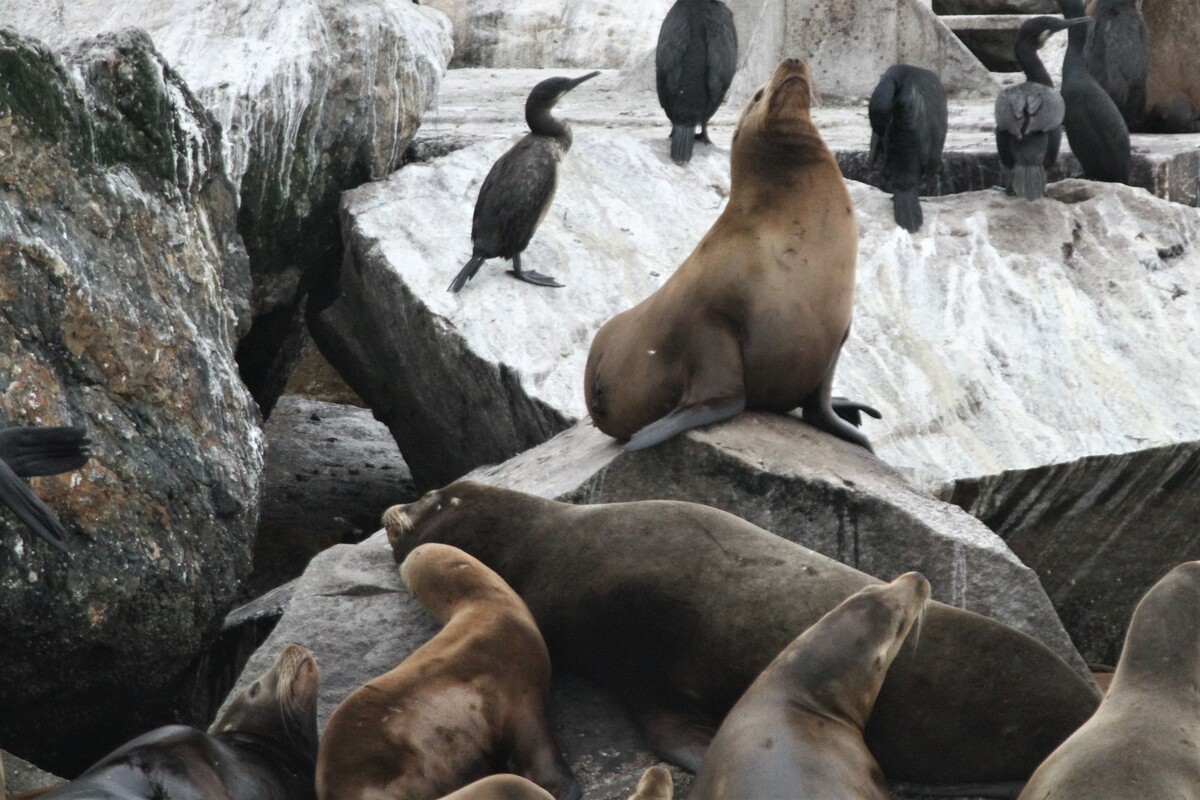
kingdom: Animalia
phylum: Chordata
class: Mammalia
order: Carnivora
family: Otariidae
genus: Zalophus
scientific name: Zalophus californianus
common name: California sea lion
